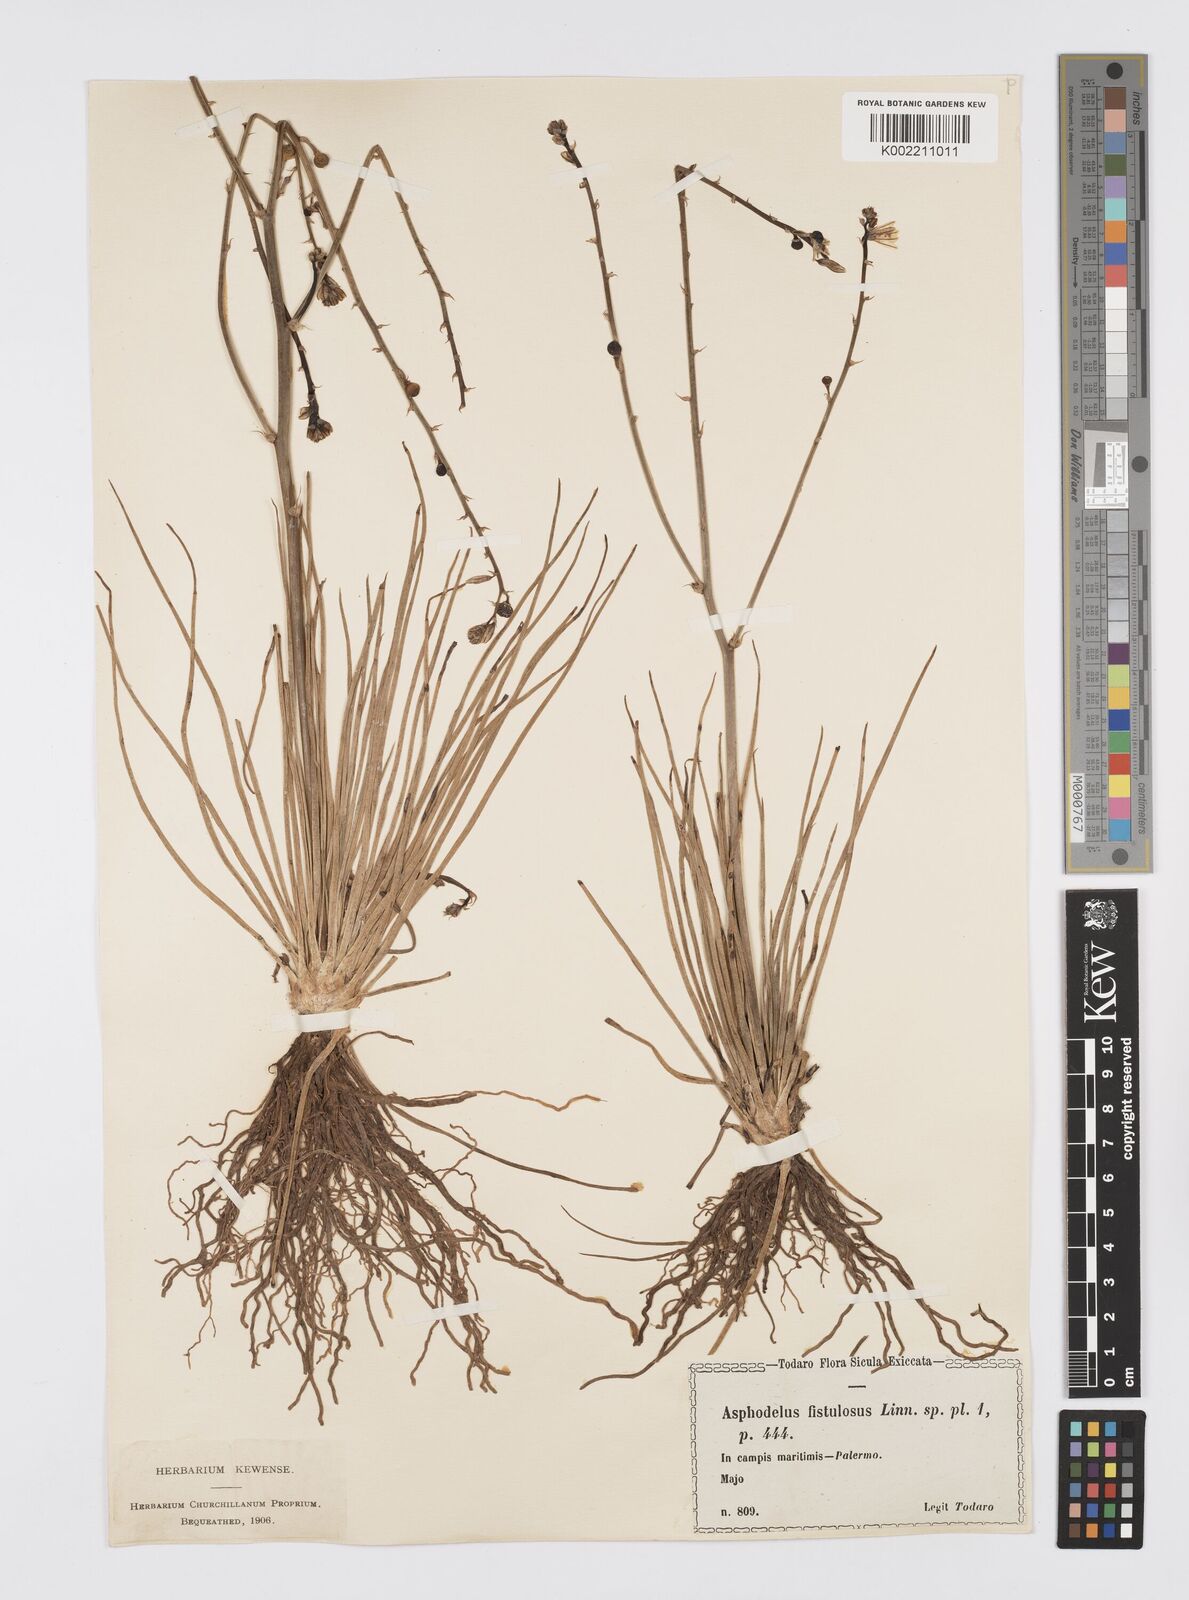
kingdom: Plantae
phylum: Tracheophyta
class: Liliopsida
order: Asparagales
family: Asphodelaceae
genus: Asphodelus
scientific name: Asphodelus fistulosus
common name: Onionweed
